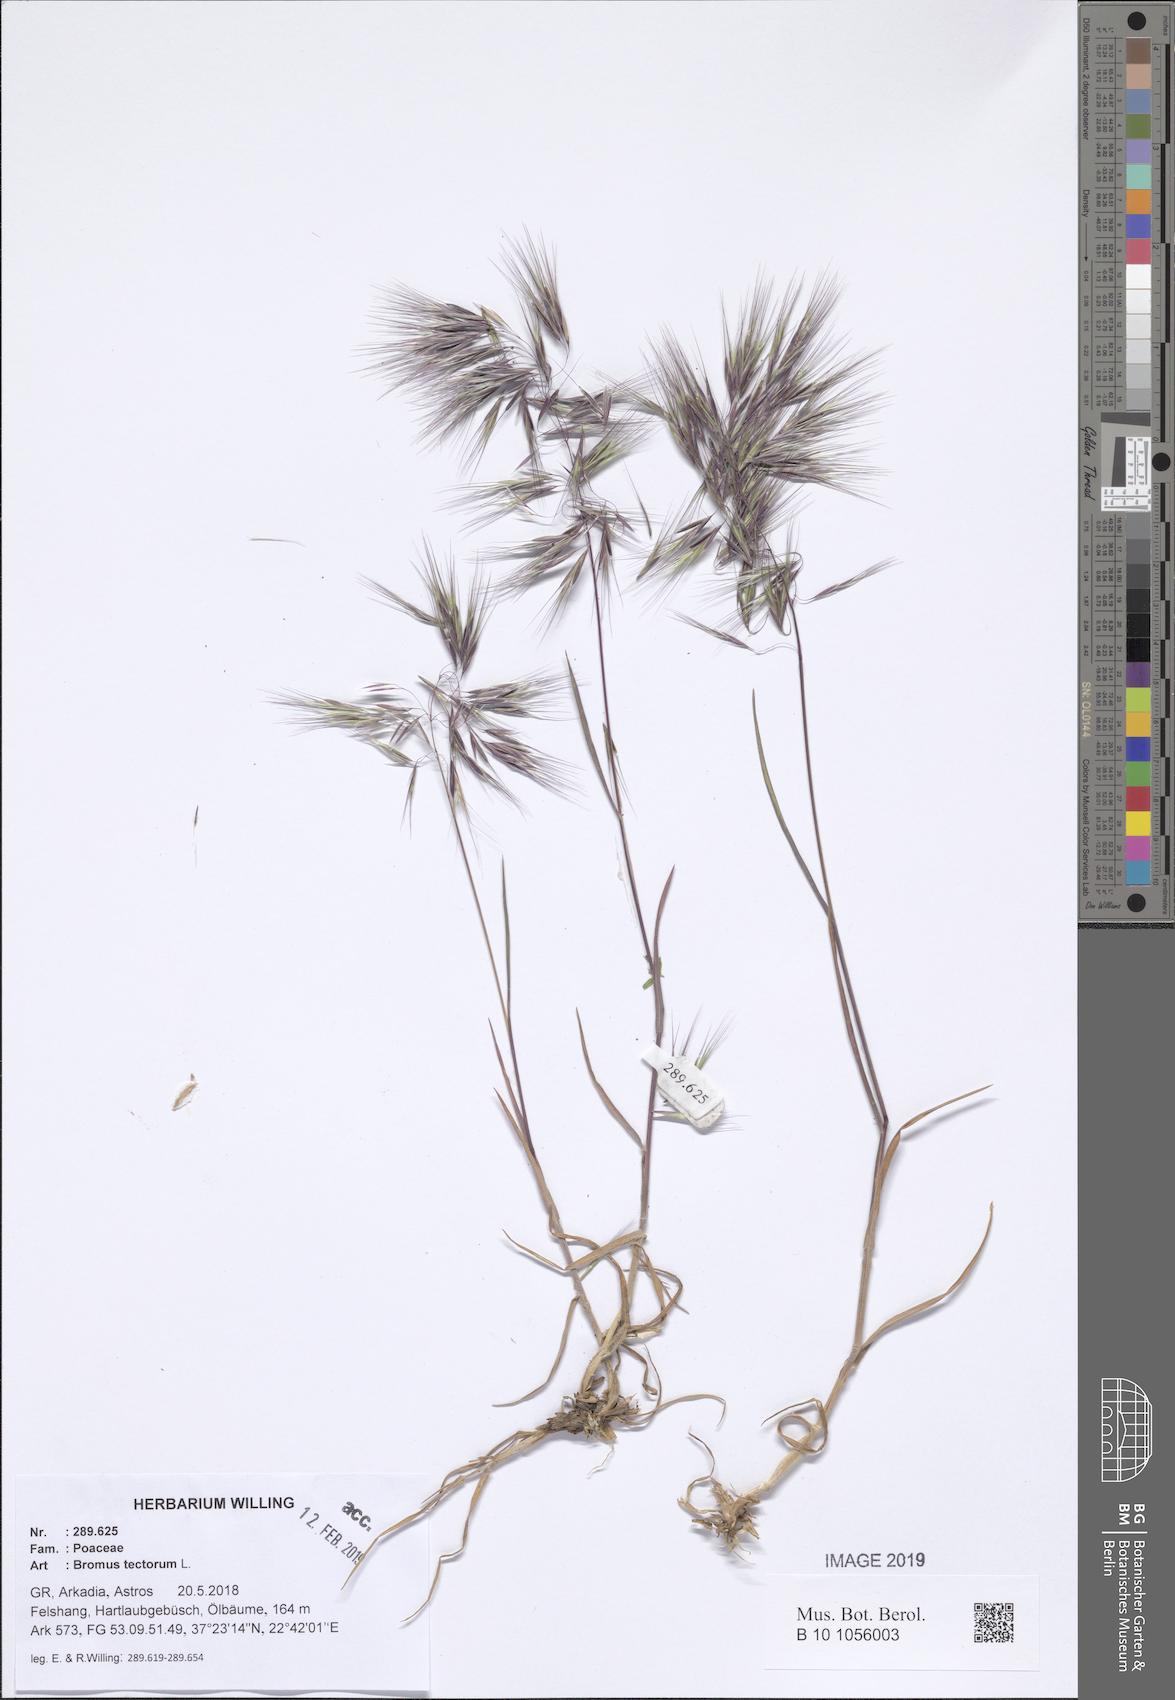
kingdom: Plantae
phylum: Tracheophyta
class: Liliopsida
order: Poales
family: Poaceae
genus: Bromus
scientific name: Bromus tectorum
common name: Cheatgrass
